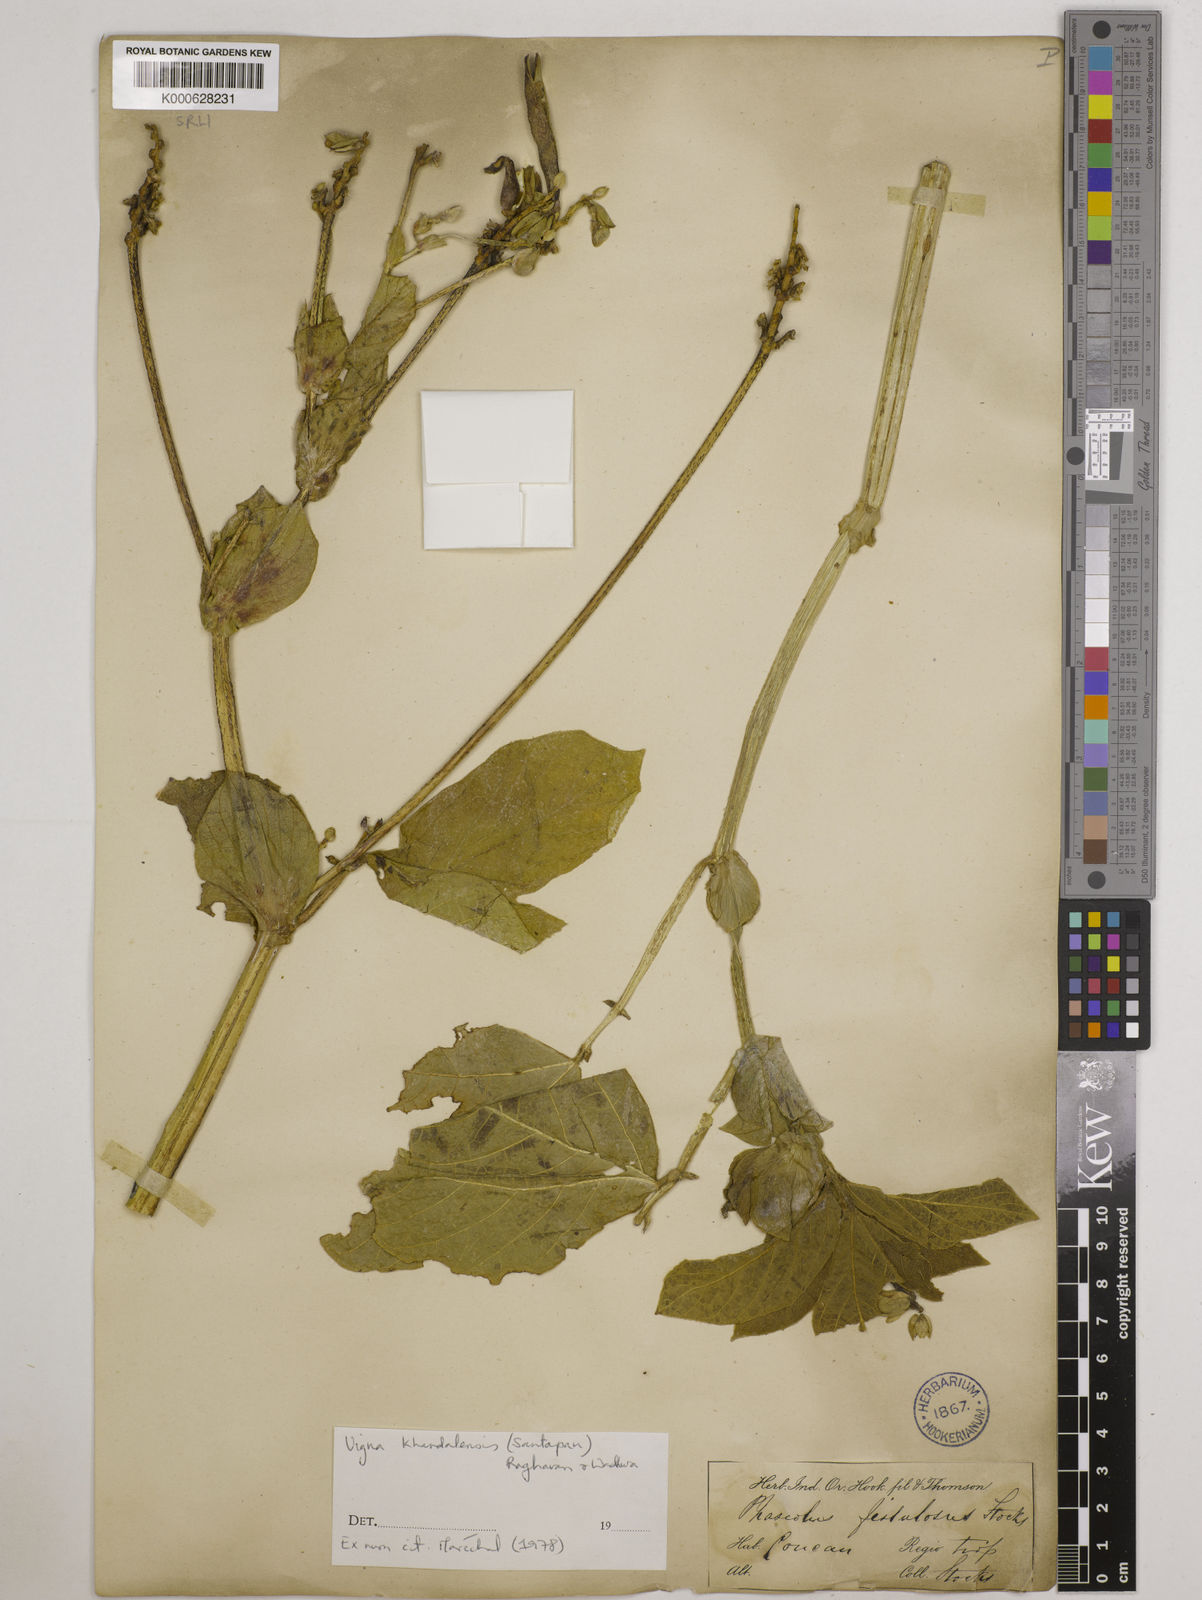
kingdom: Plantae
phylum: Tracheophyta
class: Magnoliopsida
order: Fabales
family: Fabaceae
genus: Vigna
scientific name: Vigna khandalensis
